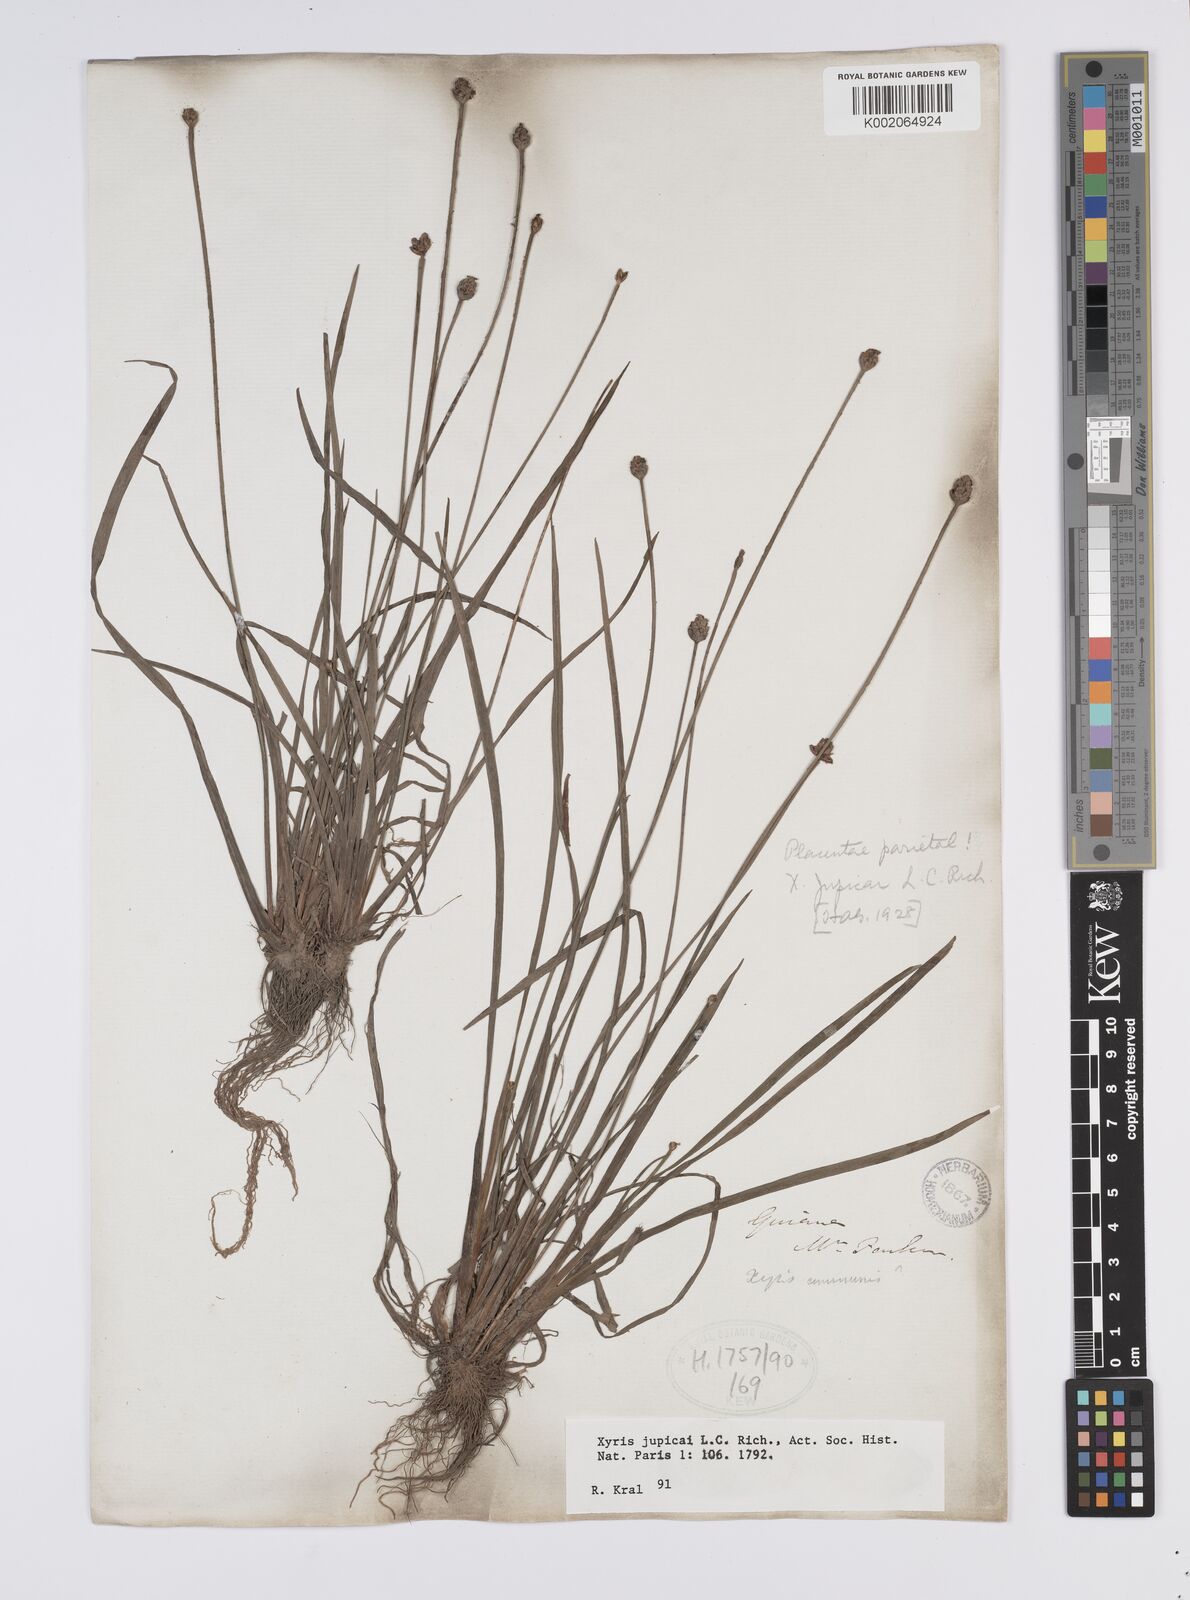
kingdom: Plantae
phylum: Tracheophyta
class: Liliopsida
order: Poales
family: Xyridaceae
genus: Xyris
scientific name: Xyris jupicai
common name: Richard's yelloweyed grass
